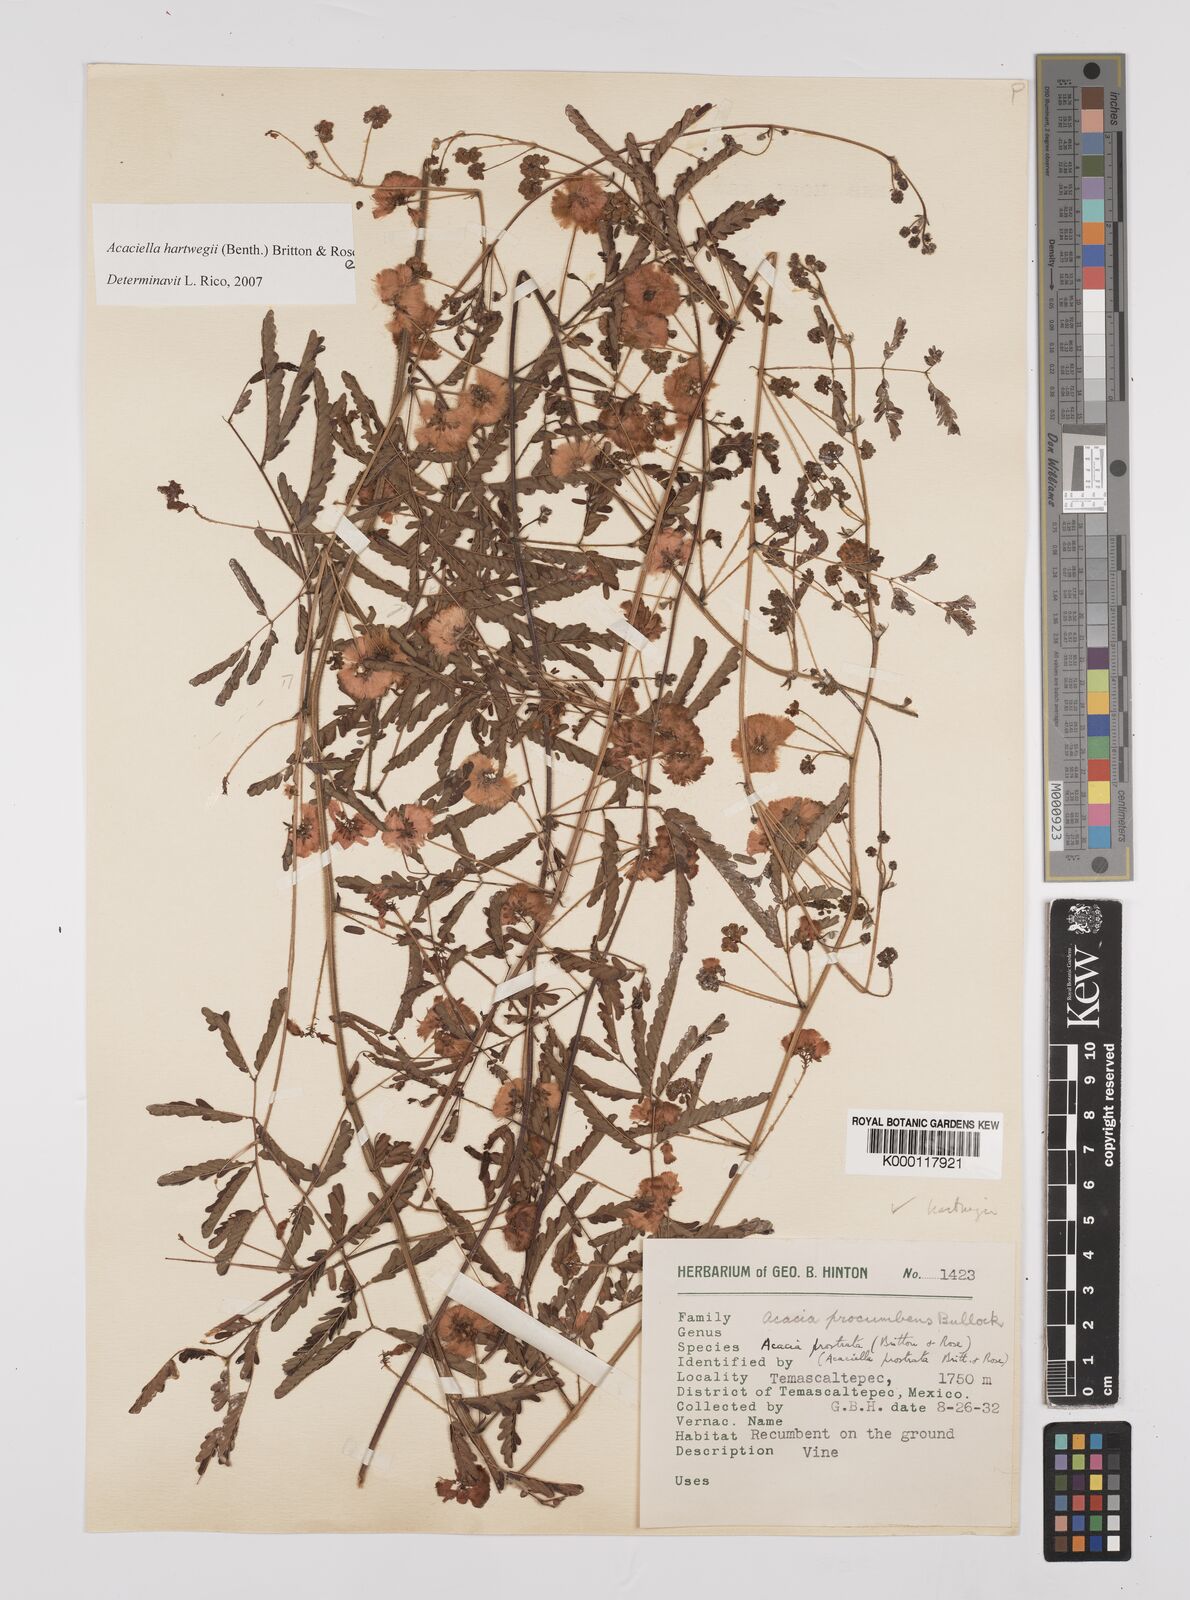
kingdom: Plantae
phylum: Tracheophyta
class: Magnoliopsida
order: Fabales
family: Fabaceae
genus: Acaciella
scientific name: Acaciella hartwegii
